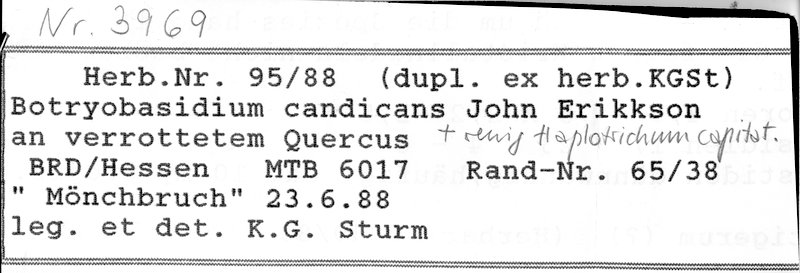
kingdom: Plantae
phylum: Tracheophyta
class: Magnoliopsida
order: Fagales
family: Fagaceae
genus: Quercus
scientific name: Quercus
